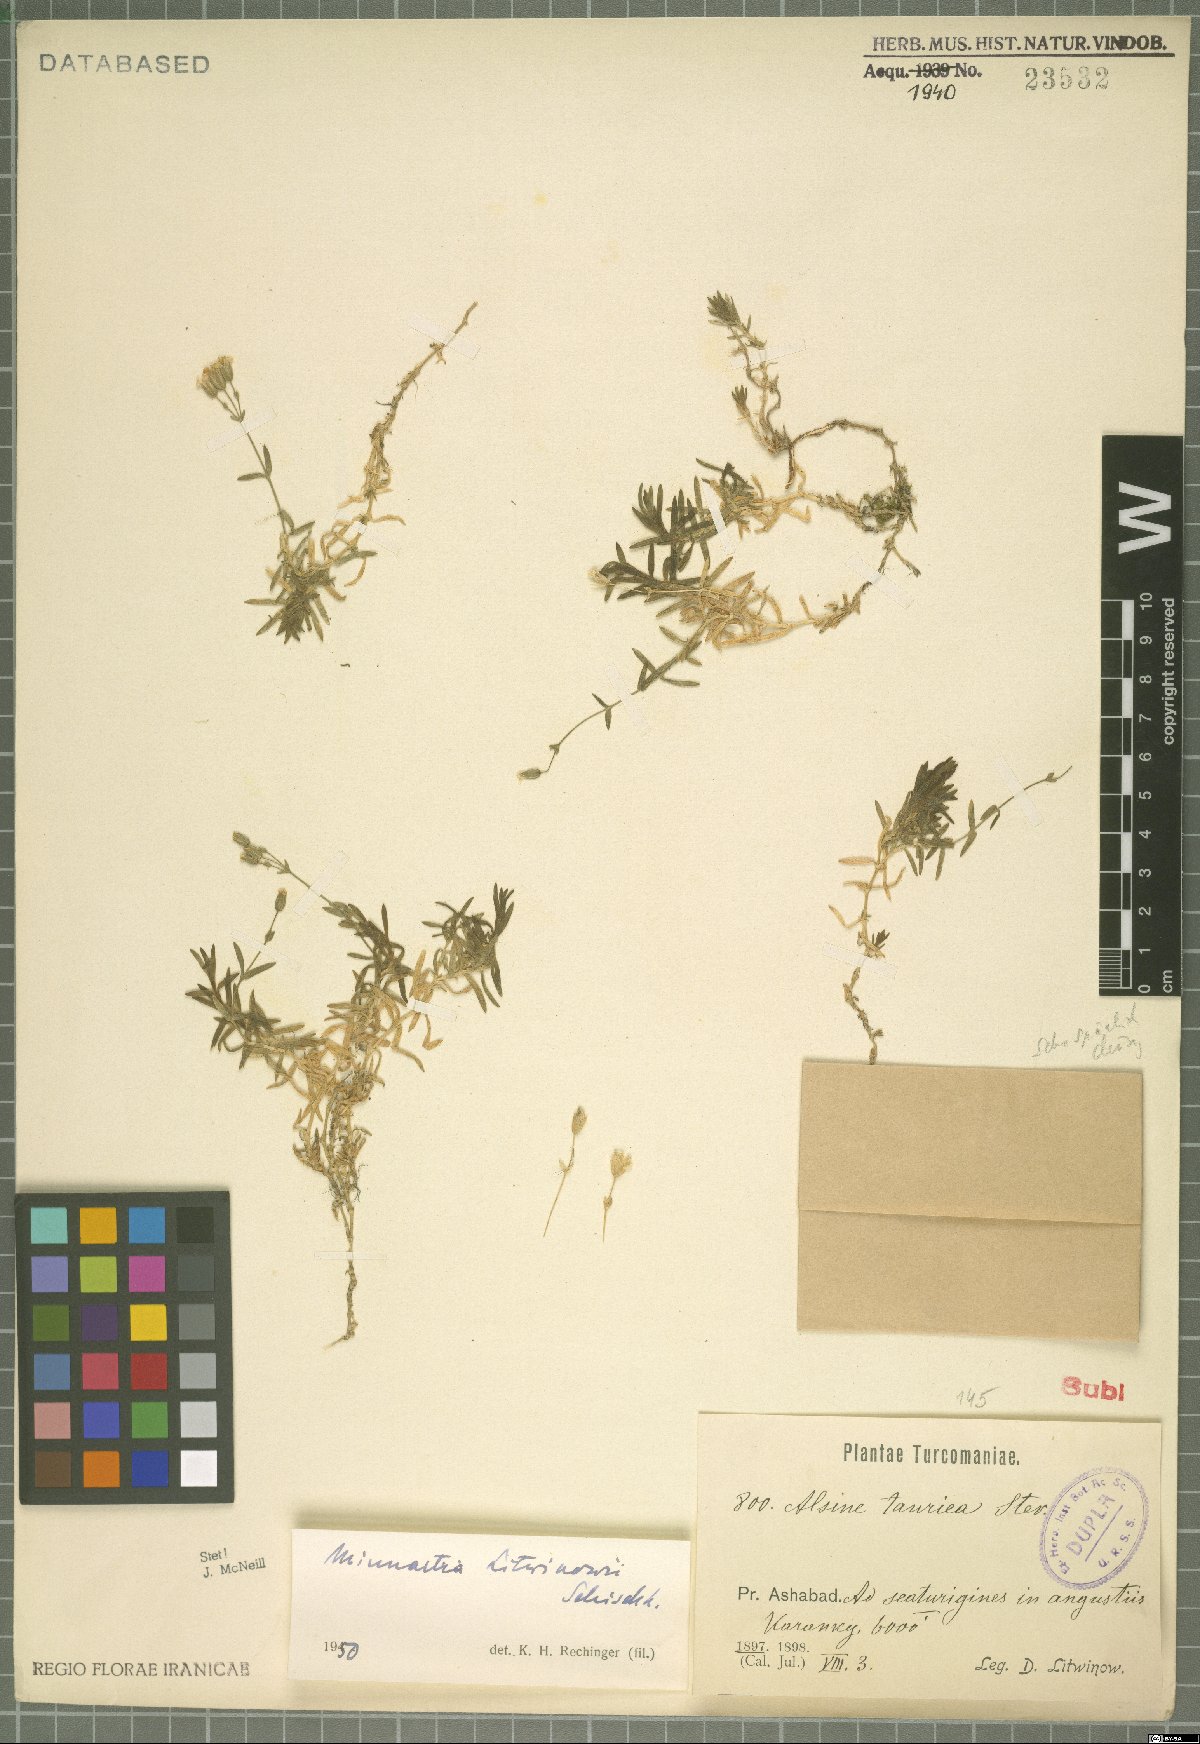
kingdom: Plantae
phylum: Tracheophyta
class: Magnoliopsida
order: Caryophyllales
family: Caryophyllaceae
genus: Sabulina
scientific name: Sabulina litwinowii
